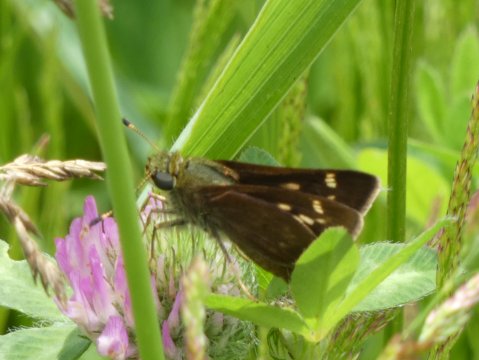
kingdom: Animalia
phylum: Arthropoda
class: Insecta
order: Lepidoptera
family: Hesperiidae
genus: Vernia
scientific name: Vernia verna
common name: Little Glassywing
